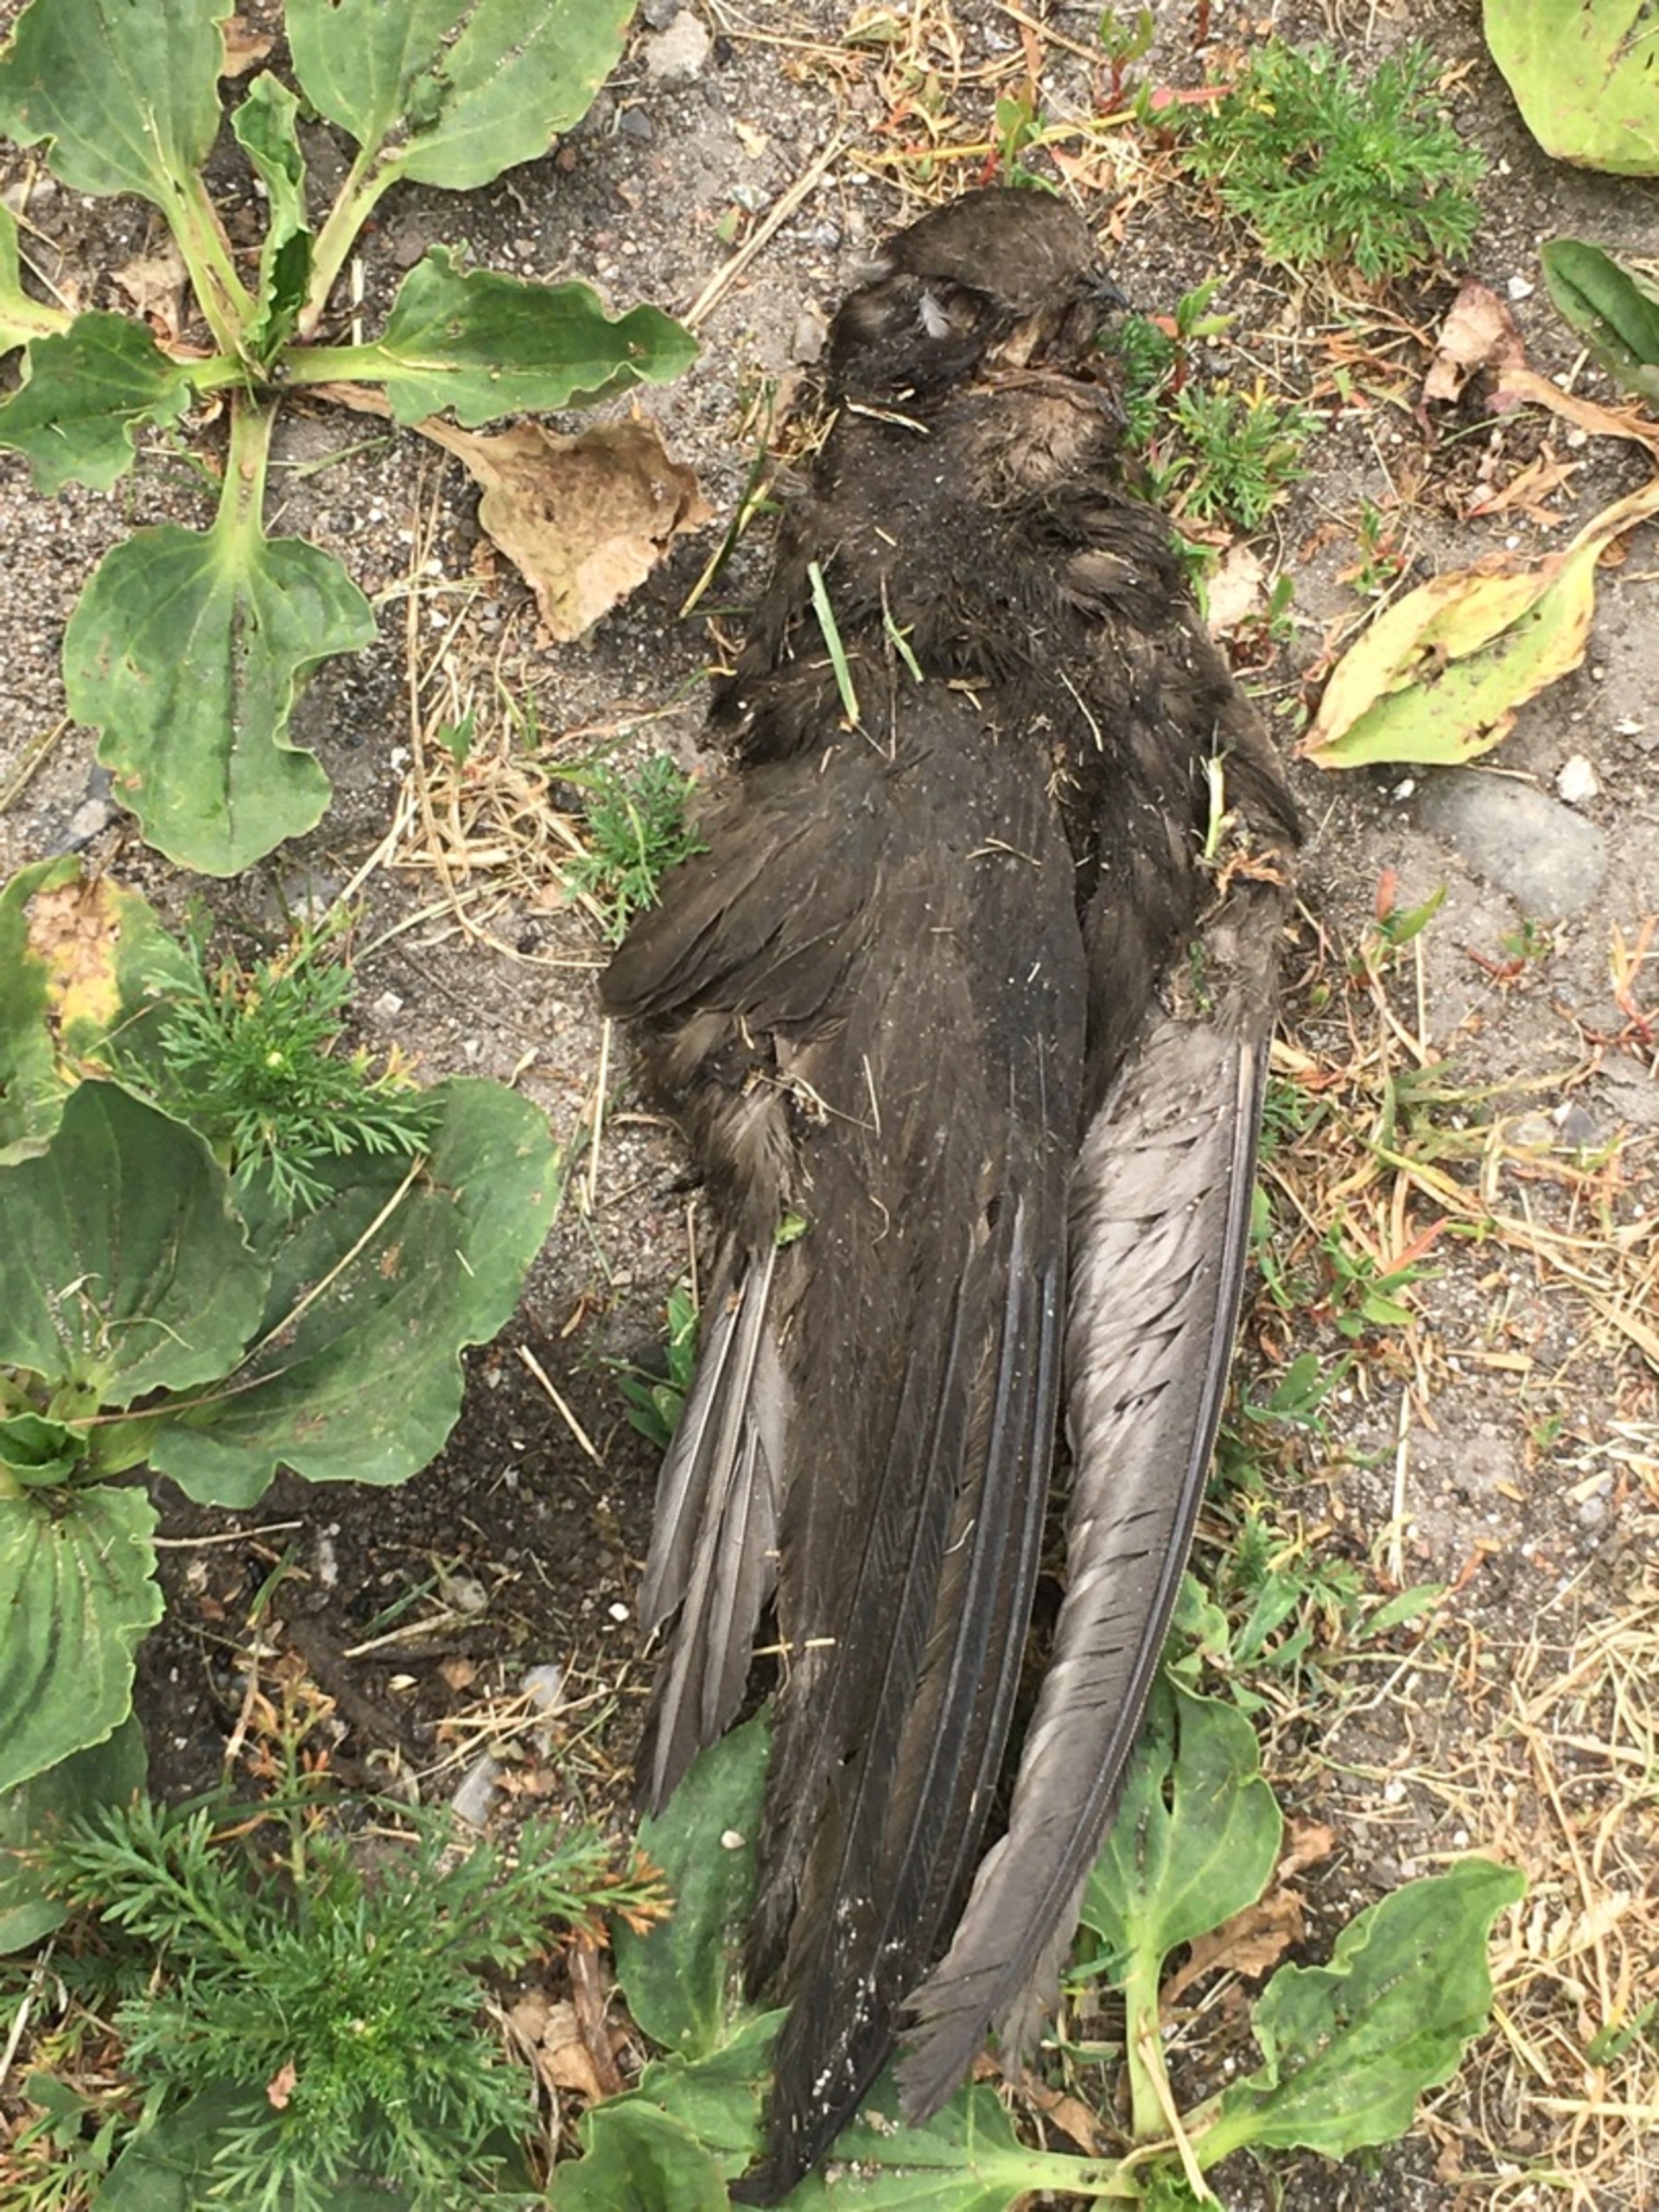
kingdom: Animalia
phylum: Chordata
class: Aves
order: Apodiformes
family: Apodidae
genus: Apus
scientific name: Apus apus
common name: Mursejler
